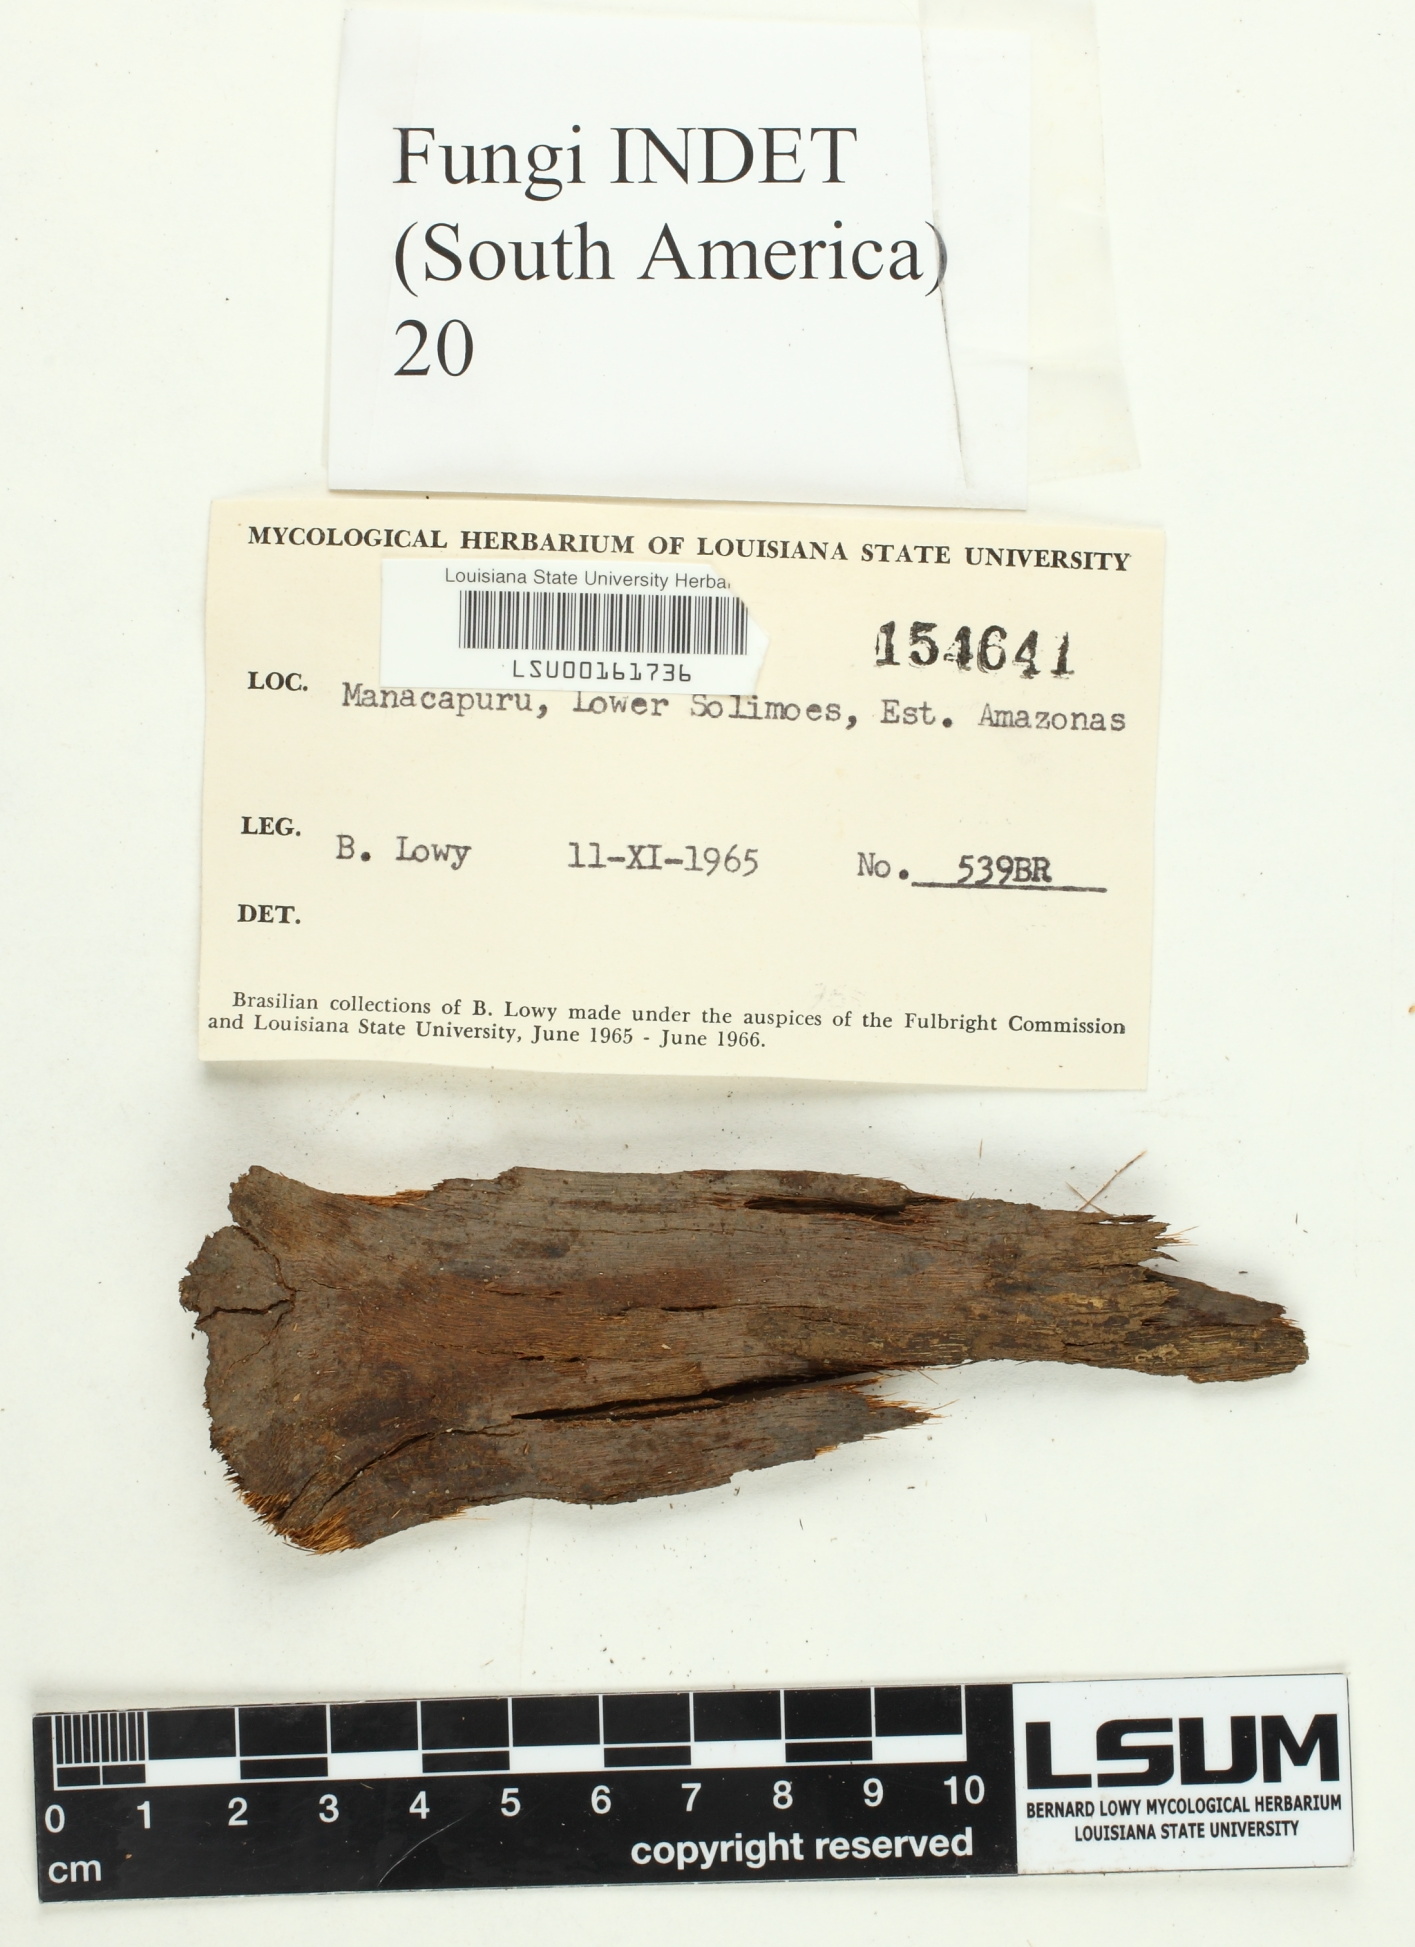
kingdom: Fungi
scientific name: Fungi
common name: Fungi
